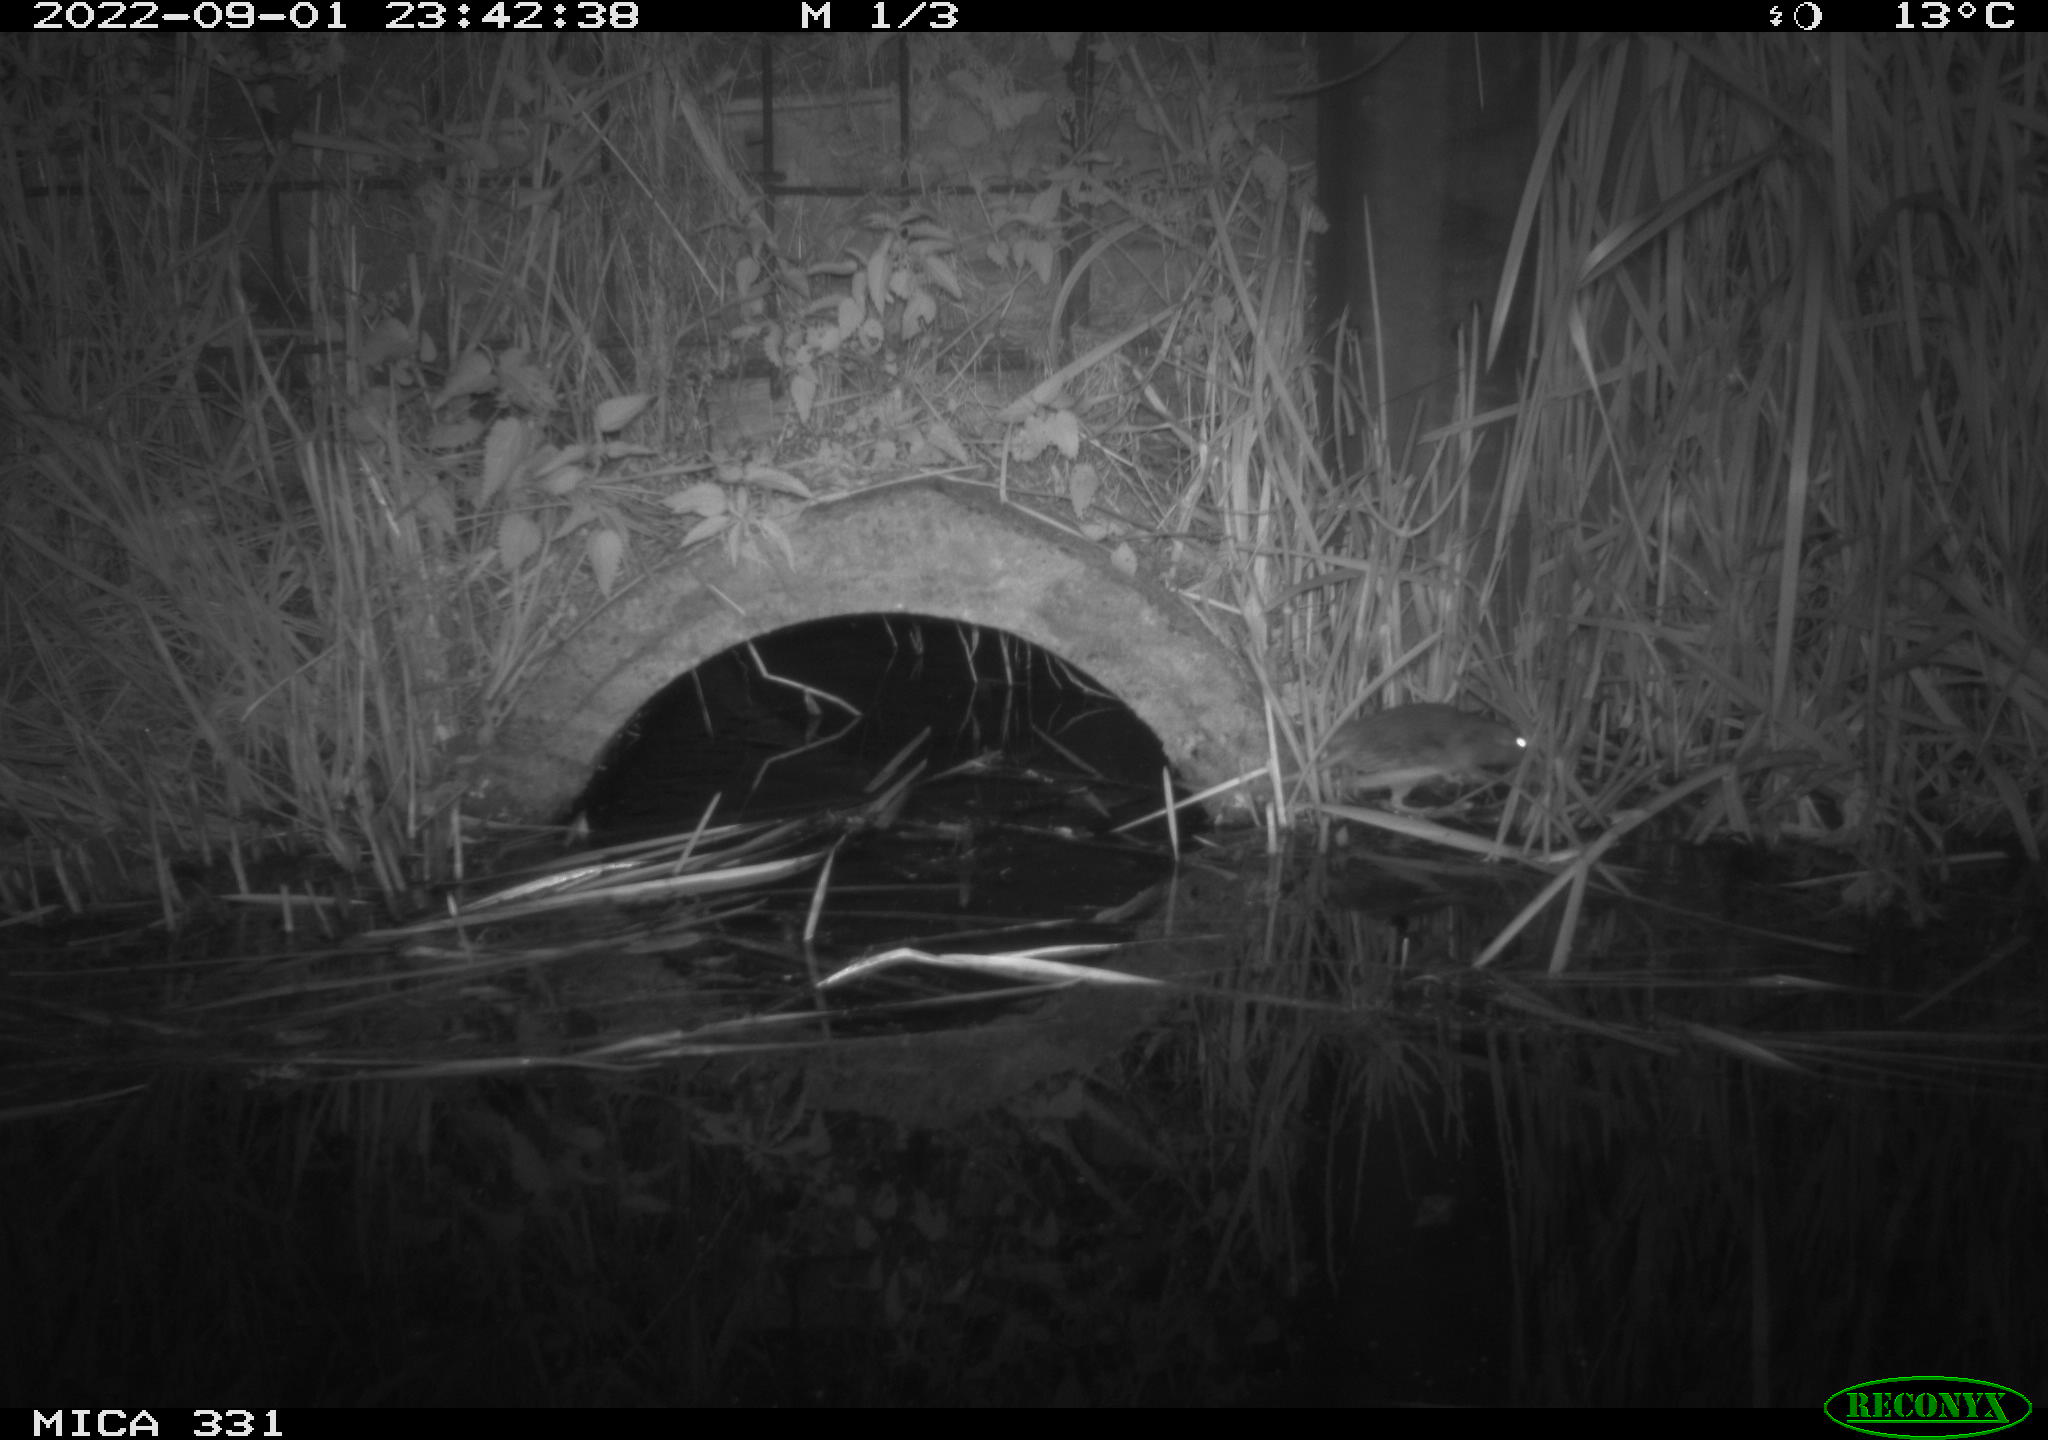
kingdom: Animalia
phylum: Chordata
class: Mammalia
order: Rodentia
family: Muridae
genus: Rattus
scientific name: Rattus norvegicus
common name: Brown rat
